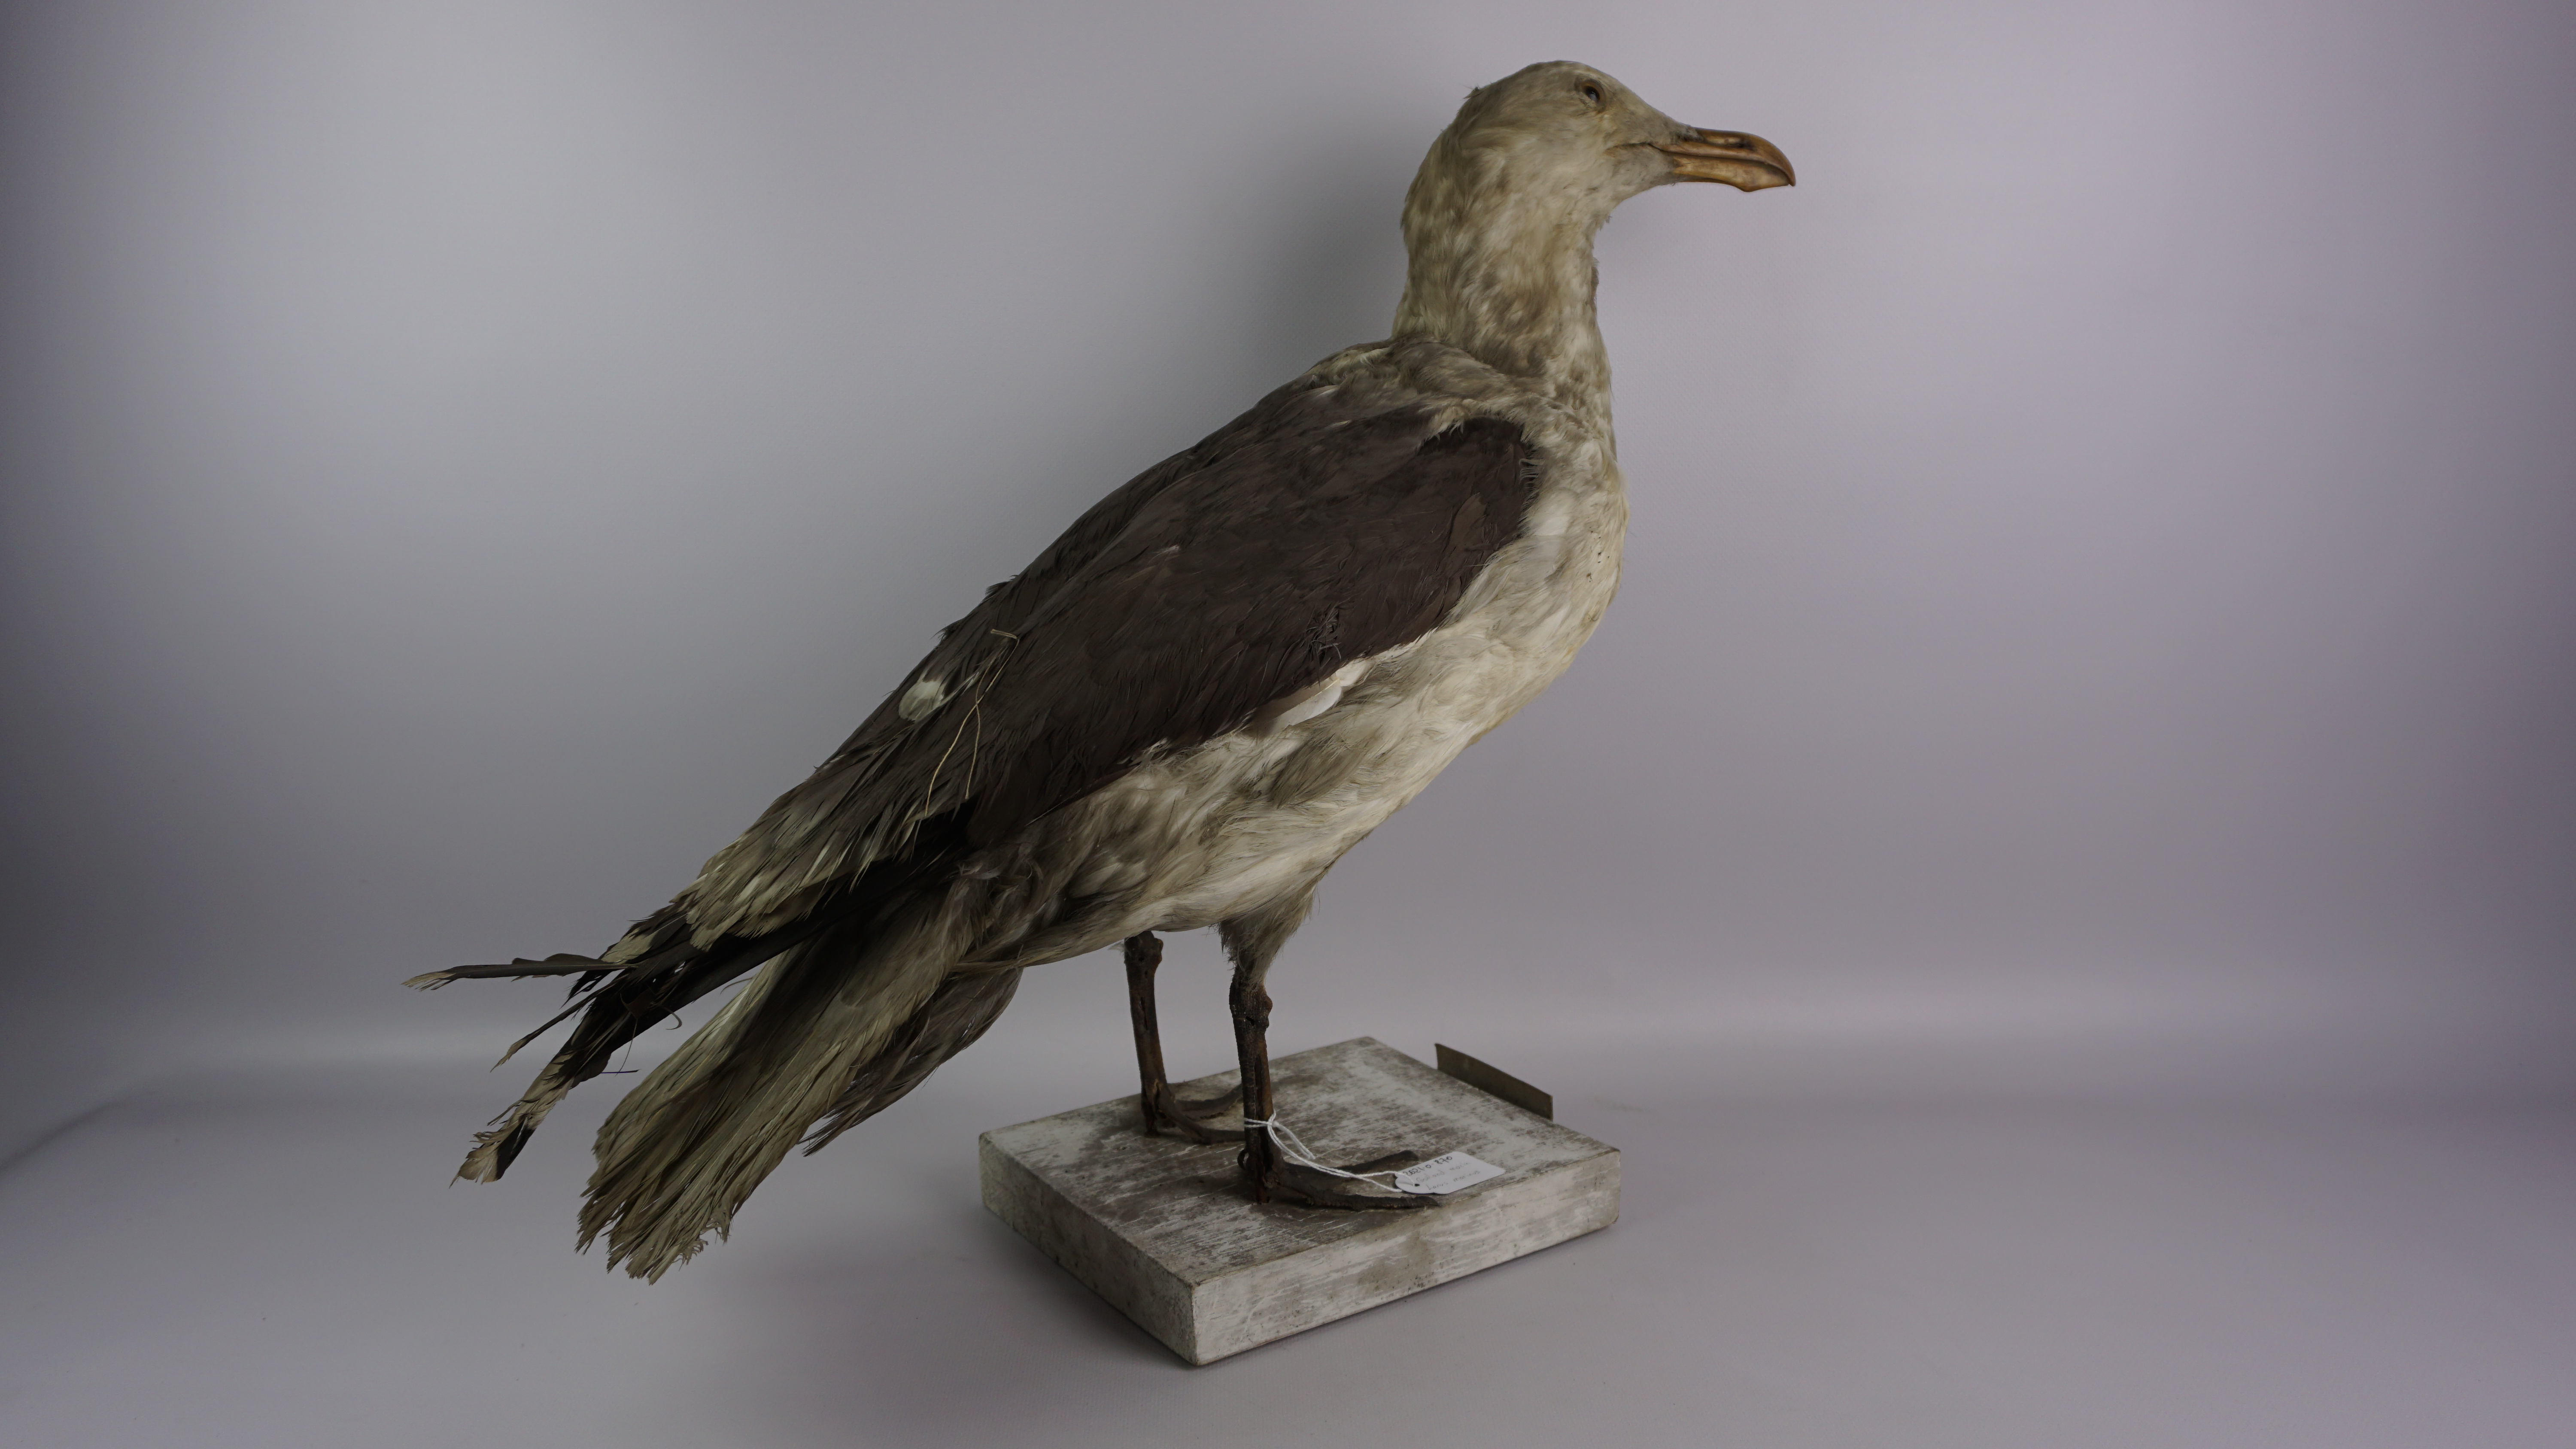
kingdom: Animalia
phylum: Chordata
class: Aves
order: Charadriiformes
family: Laridae
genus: Larus
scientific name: Larus marinus
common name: Great black-backed gull
